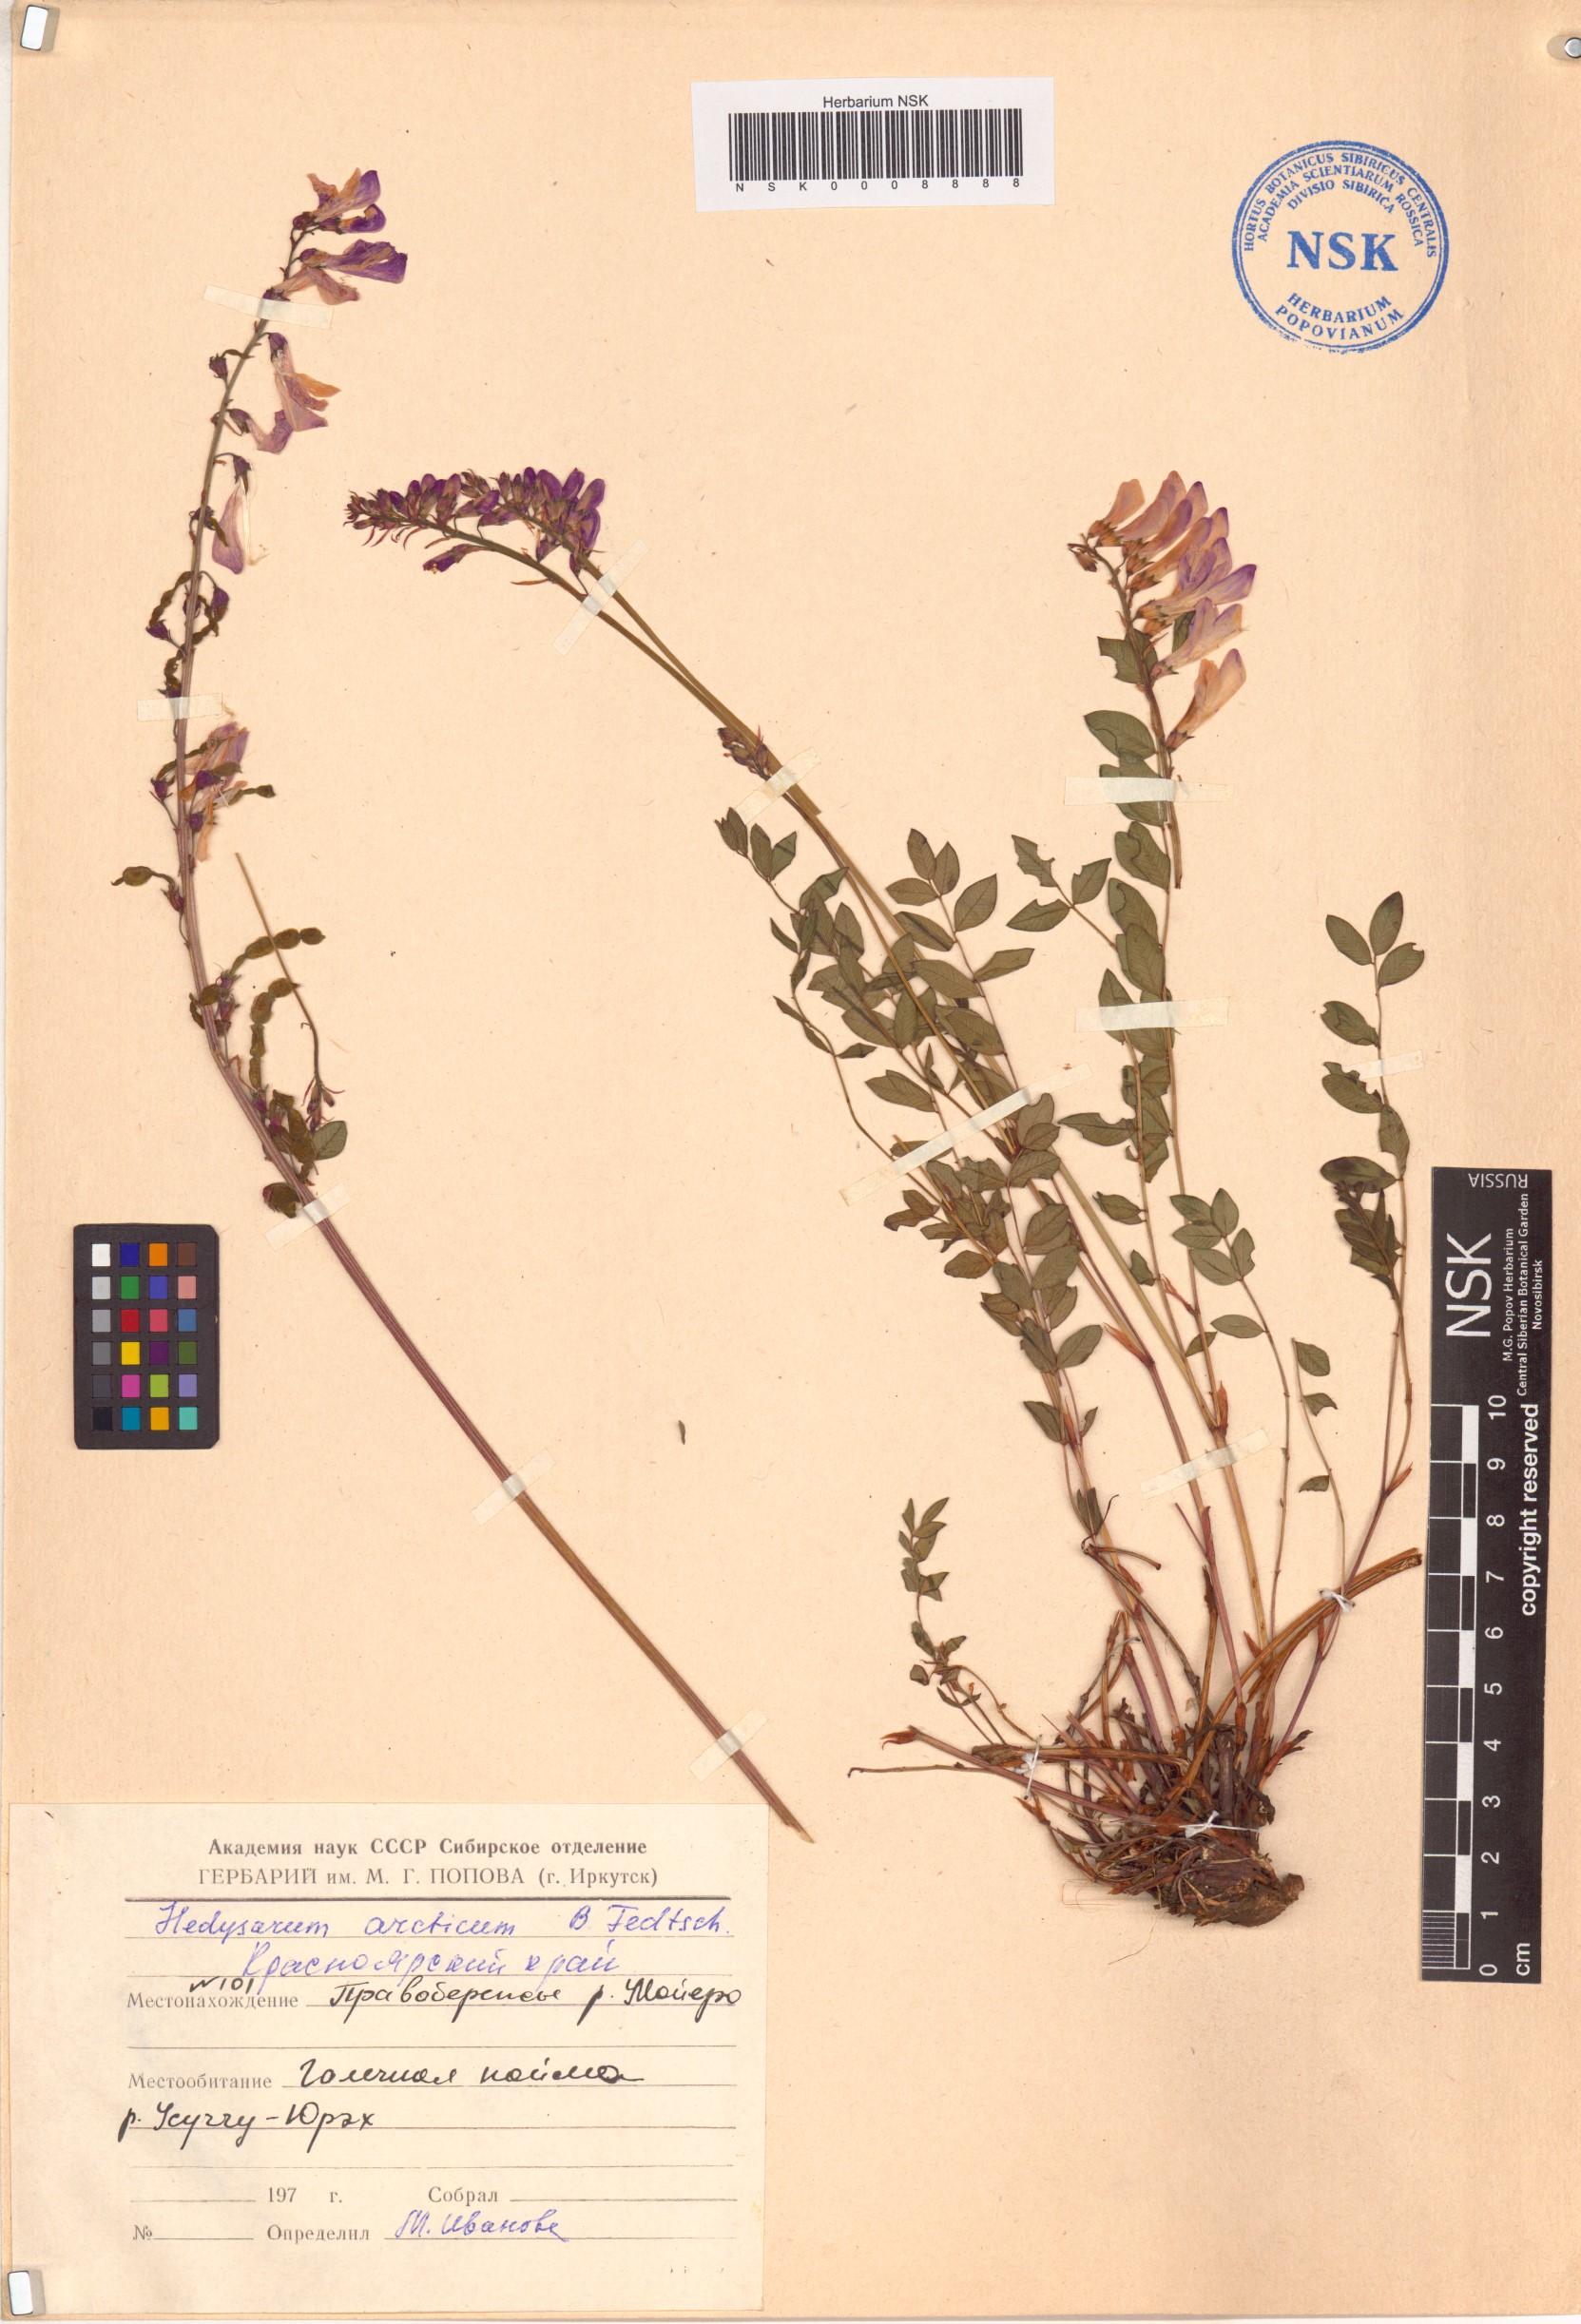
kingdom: Plantae
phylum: Tracheophyta
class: Magnoliopsida
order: Fabales
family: Fabaceae
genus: Hedysarum
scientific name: Hedysarum hedysaroides
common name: Alpine french-honeysuckle
